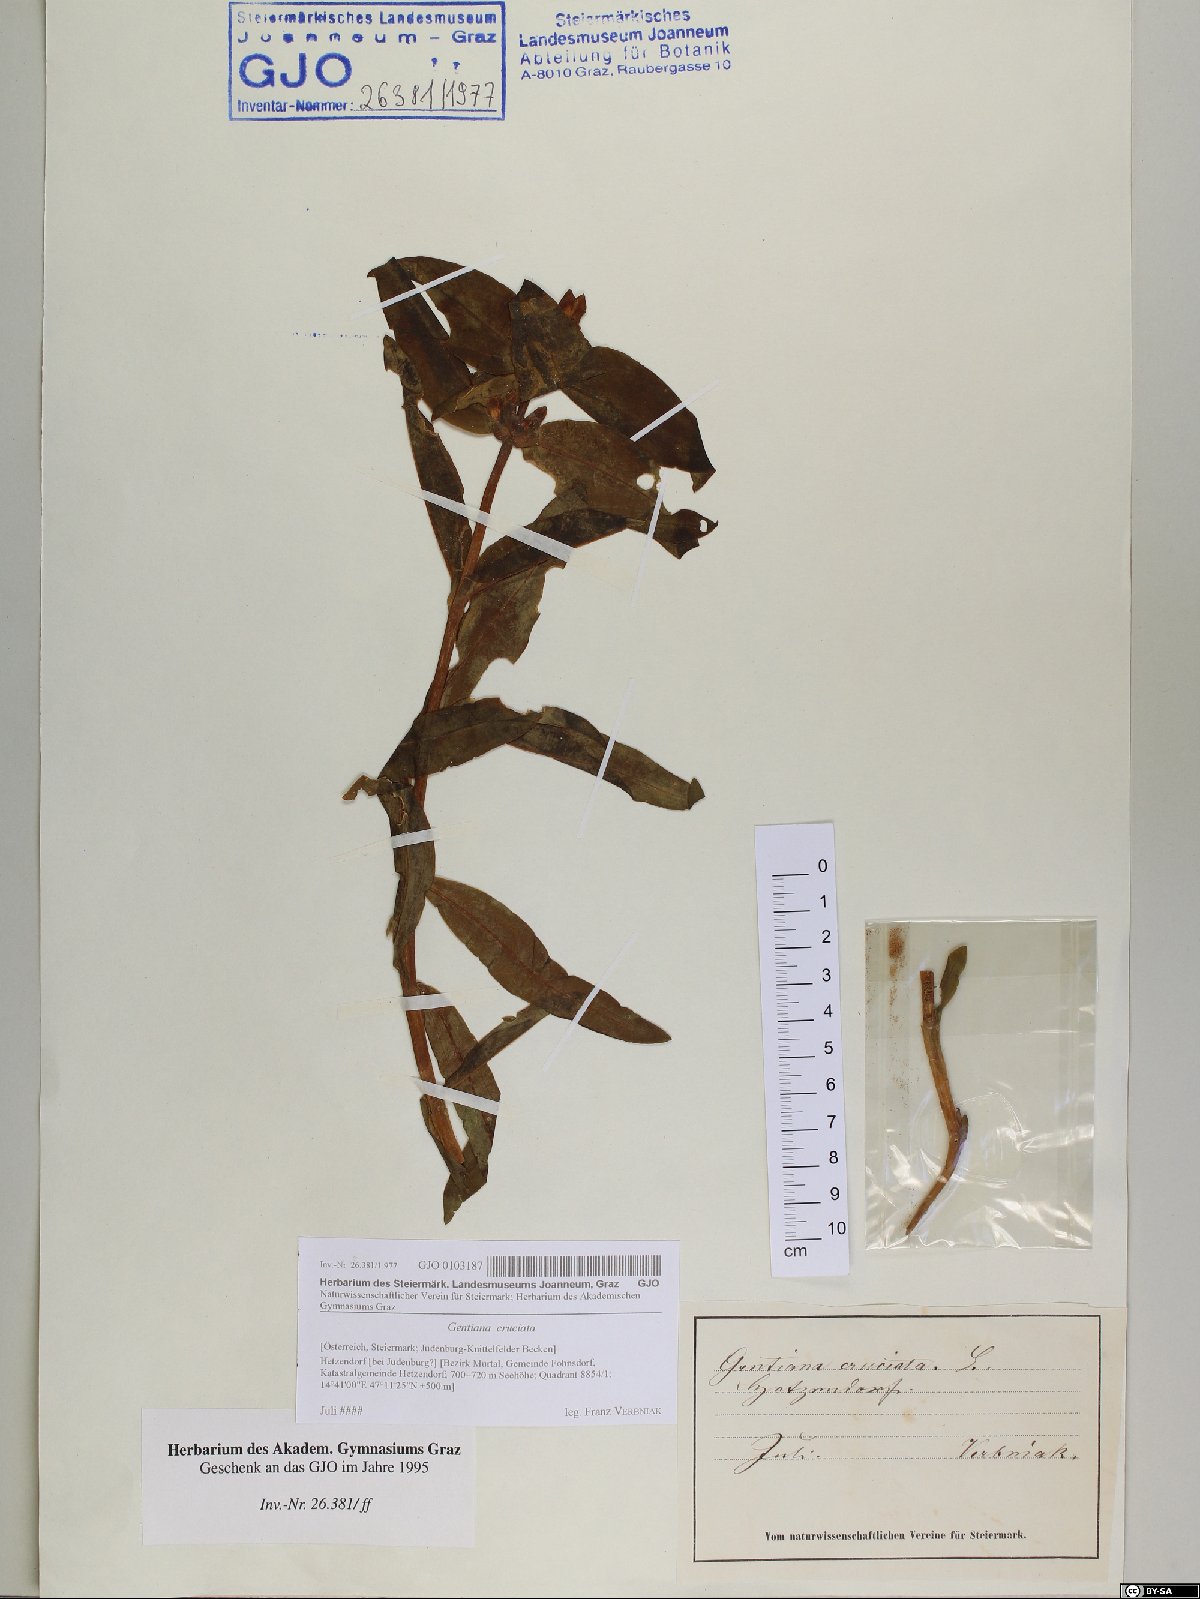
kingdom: Plantae
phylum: Tracheophyta
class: Magnoliopsida
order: Gentianales
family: Gentianaceae
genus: Gentiana
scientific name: Gentiana cruciata
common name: Cross gentian
